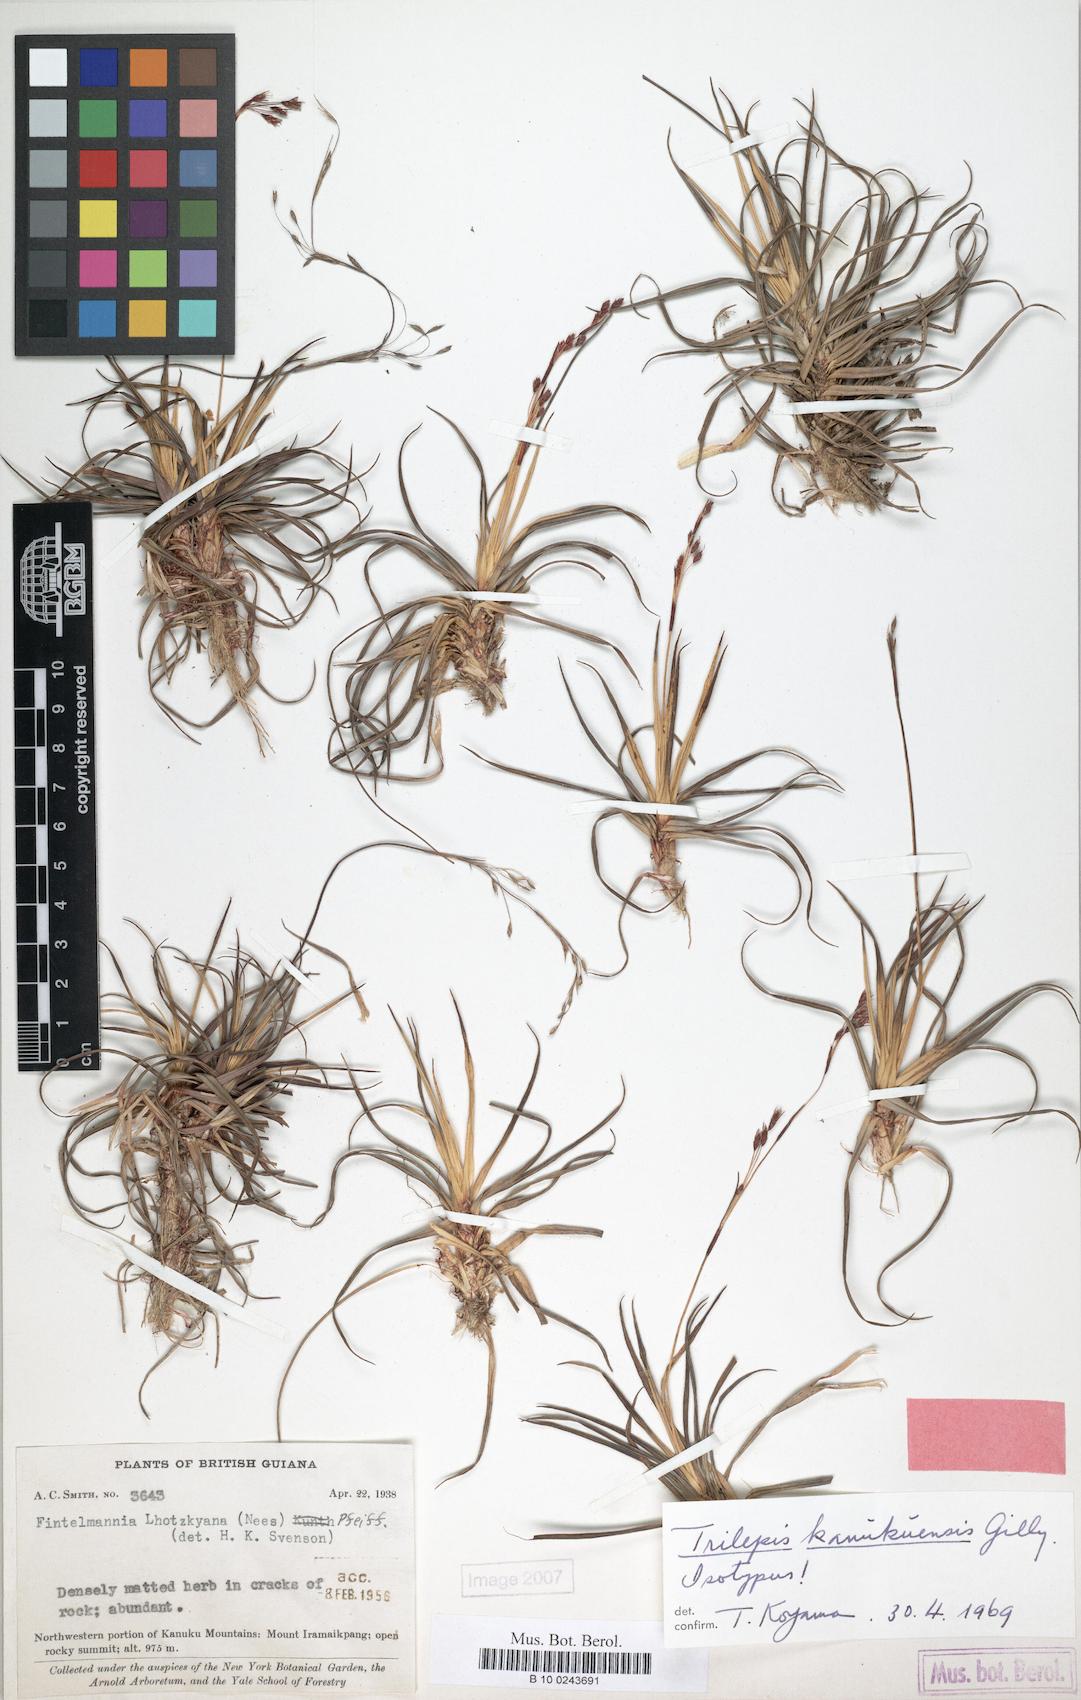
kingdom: Plantae
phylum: Tracheophyta
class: Liliopsida
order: Poales
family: Cyperaceae
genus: Trilepis
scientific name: Trilepis kanukuensis
